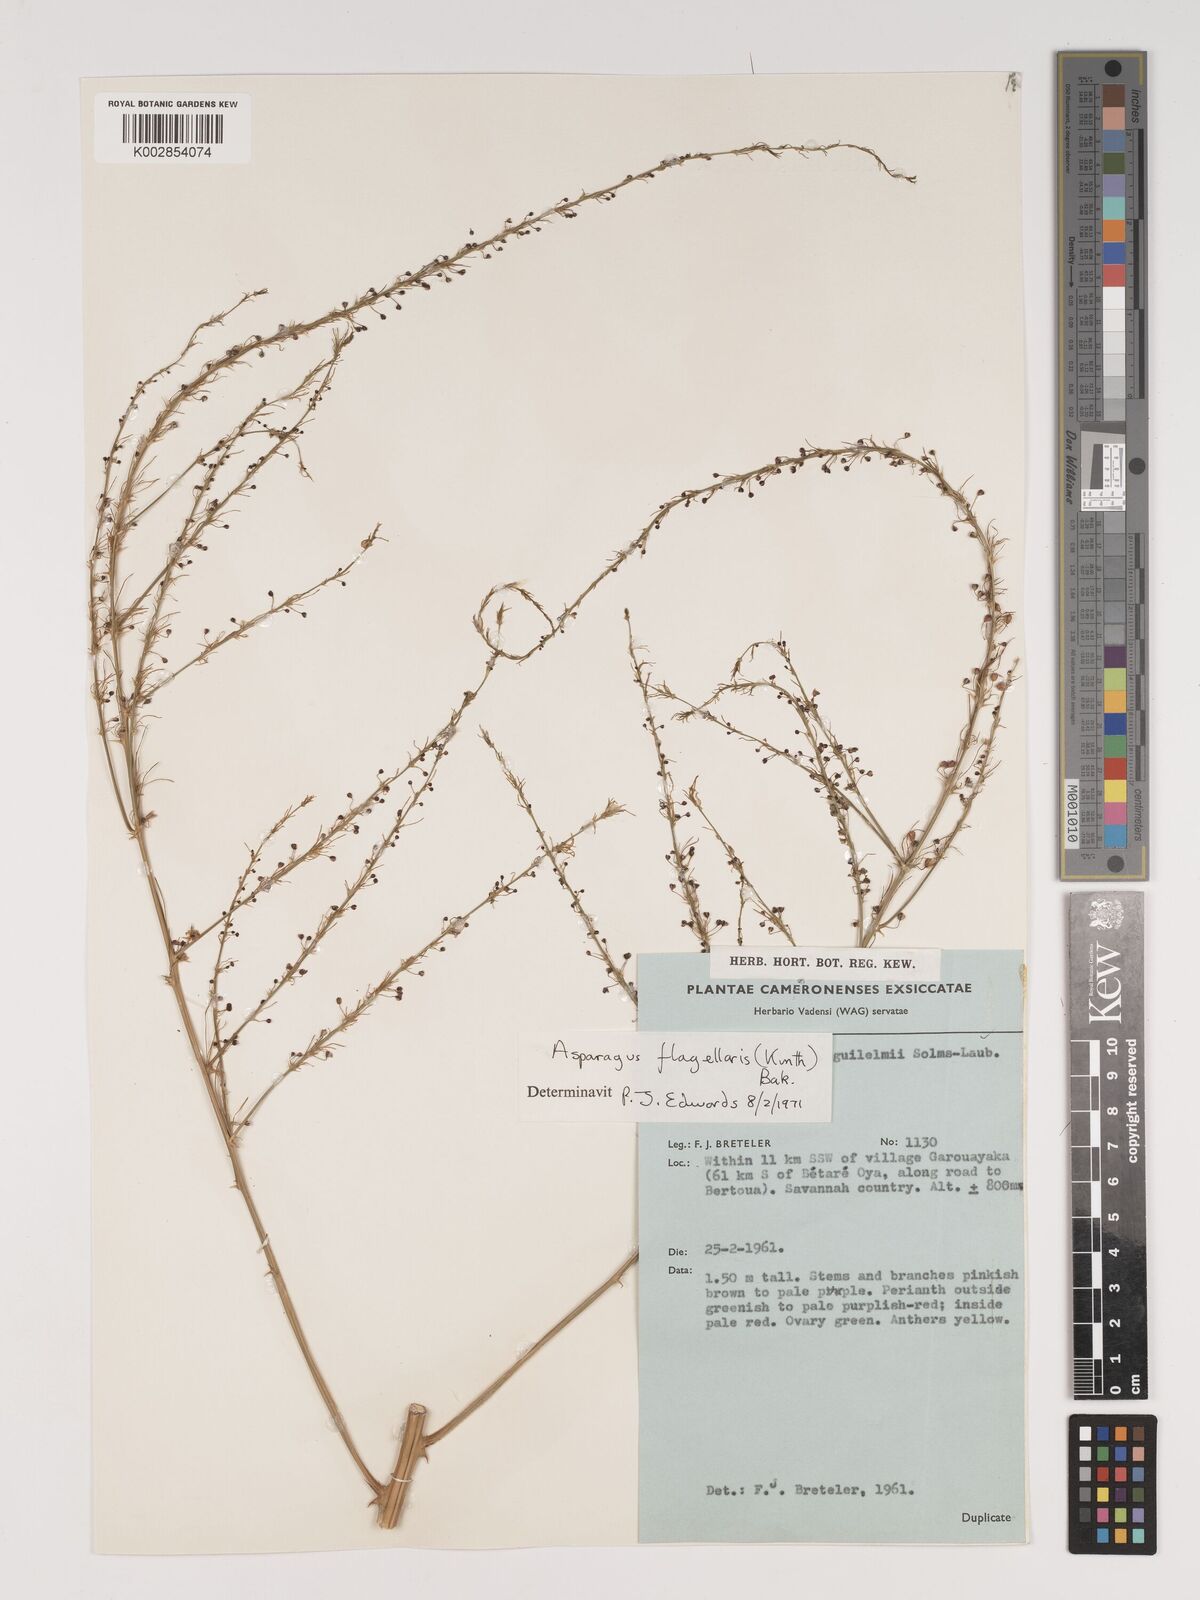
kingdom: Plantae
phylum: Tracheophyta
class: Liliopsida
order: Asparagales
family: Asparagaceae
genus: Asparagus
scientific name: Asparagus flagellaris
